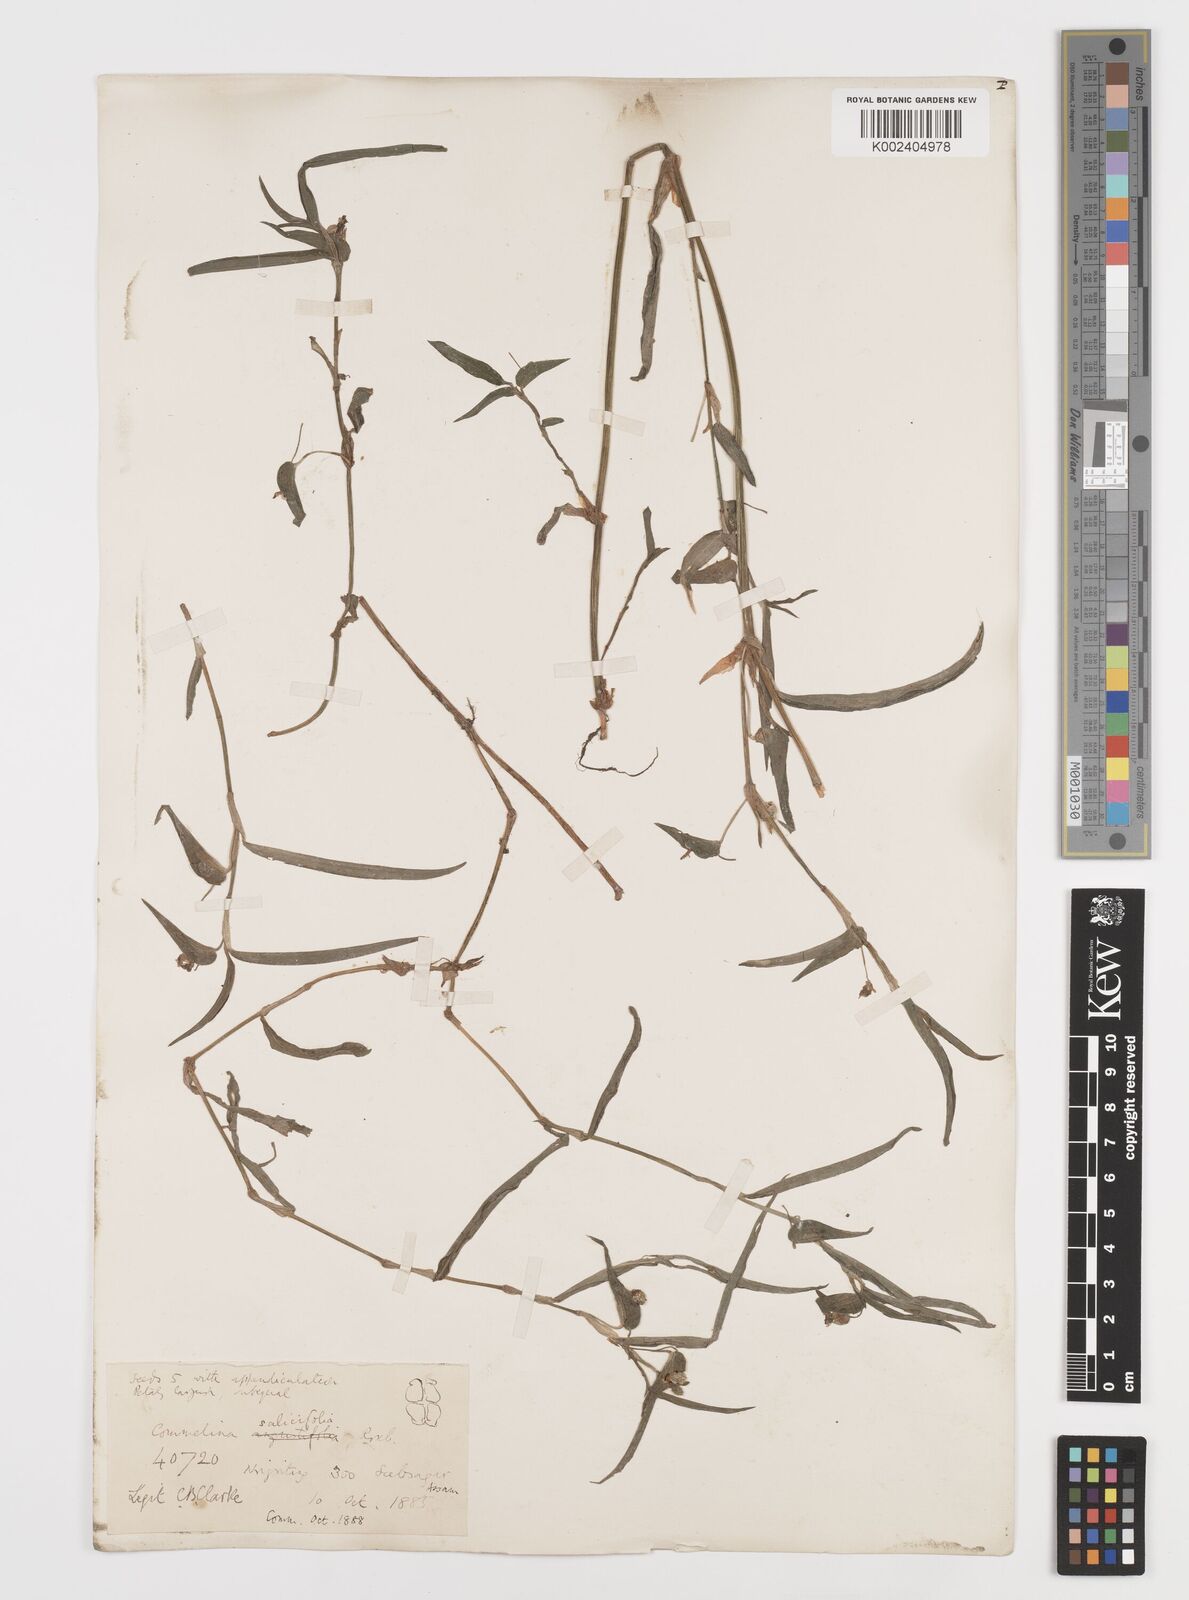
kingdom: Plantae
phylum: Tracheophyta
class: Liliopsida
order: Commelinales
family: Commelinaceae
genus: Commelina
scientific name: Commelina undulata
